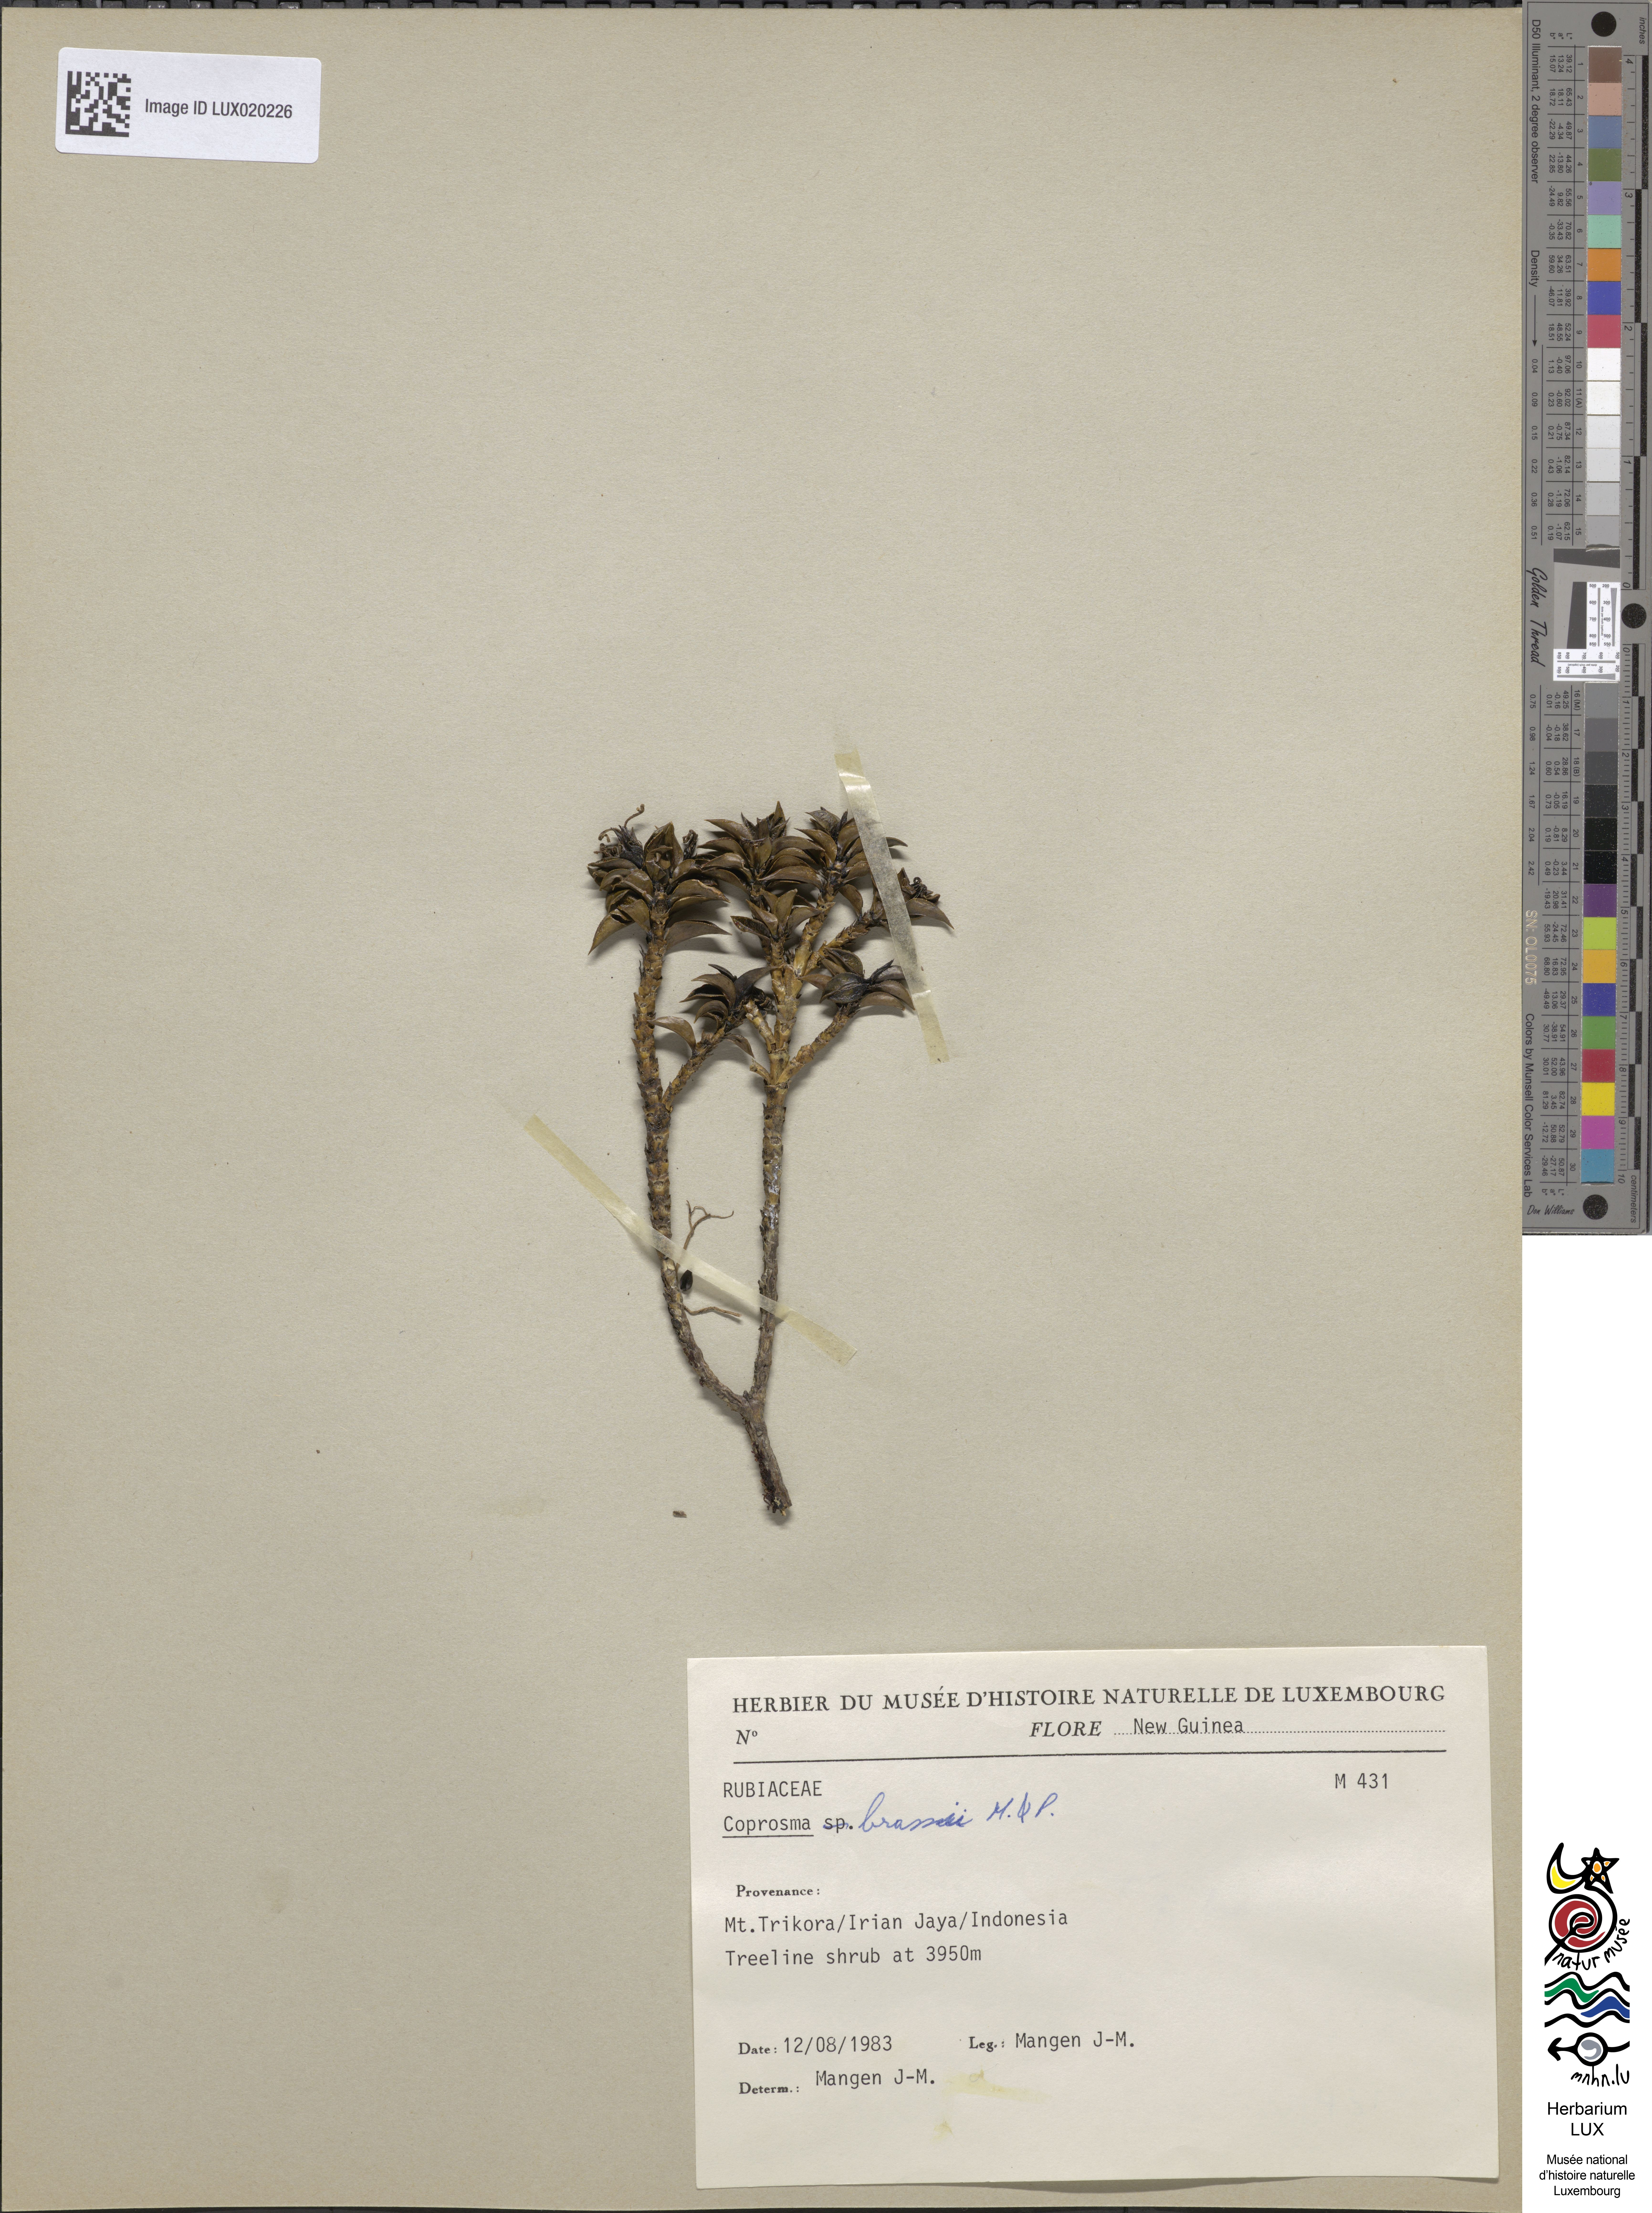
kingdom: Plantae
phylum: Tracheophyta
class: Magnoliopsida
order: Gentianales
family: Rubiaceae
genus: Coprosma
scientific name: Coprosma brassii
